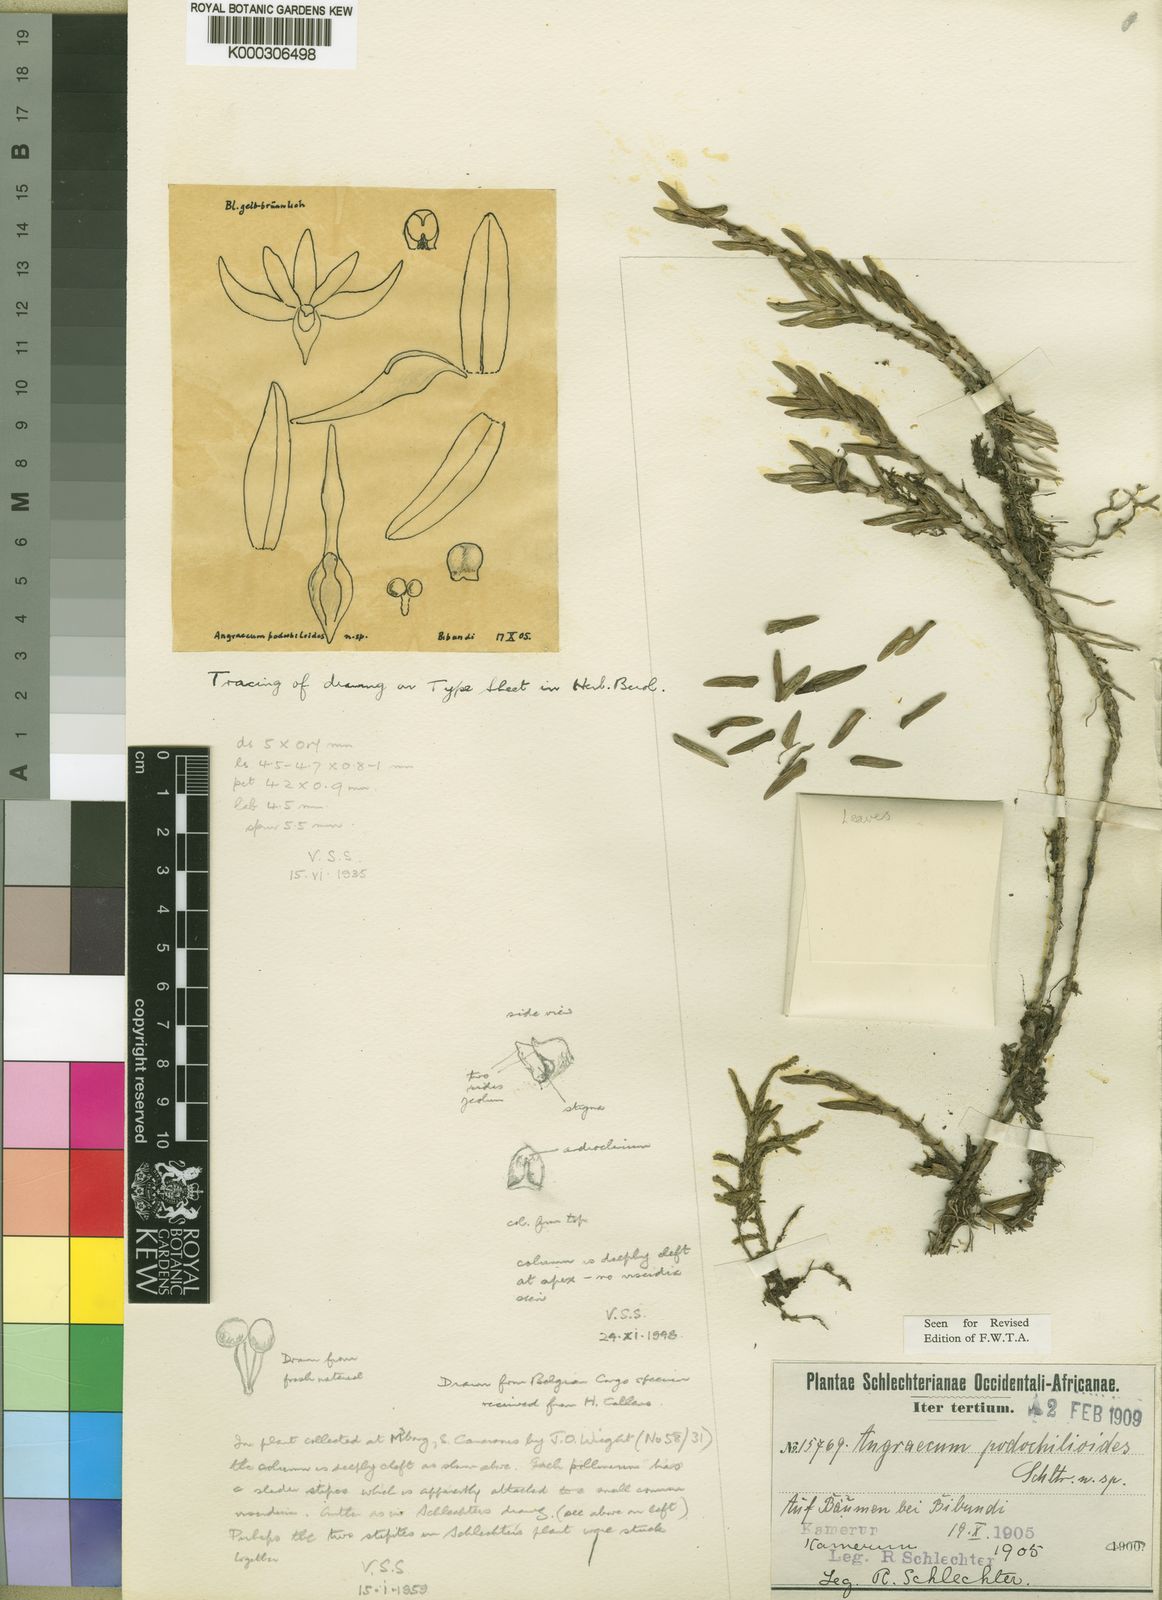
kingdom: Plantae
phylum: Tracheophyta
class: Liliopsida
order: Asparagales
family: Orchidaceae
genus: Angraecum
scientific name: Angraecum podochiloides
